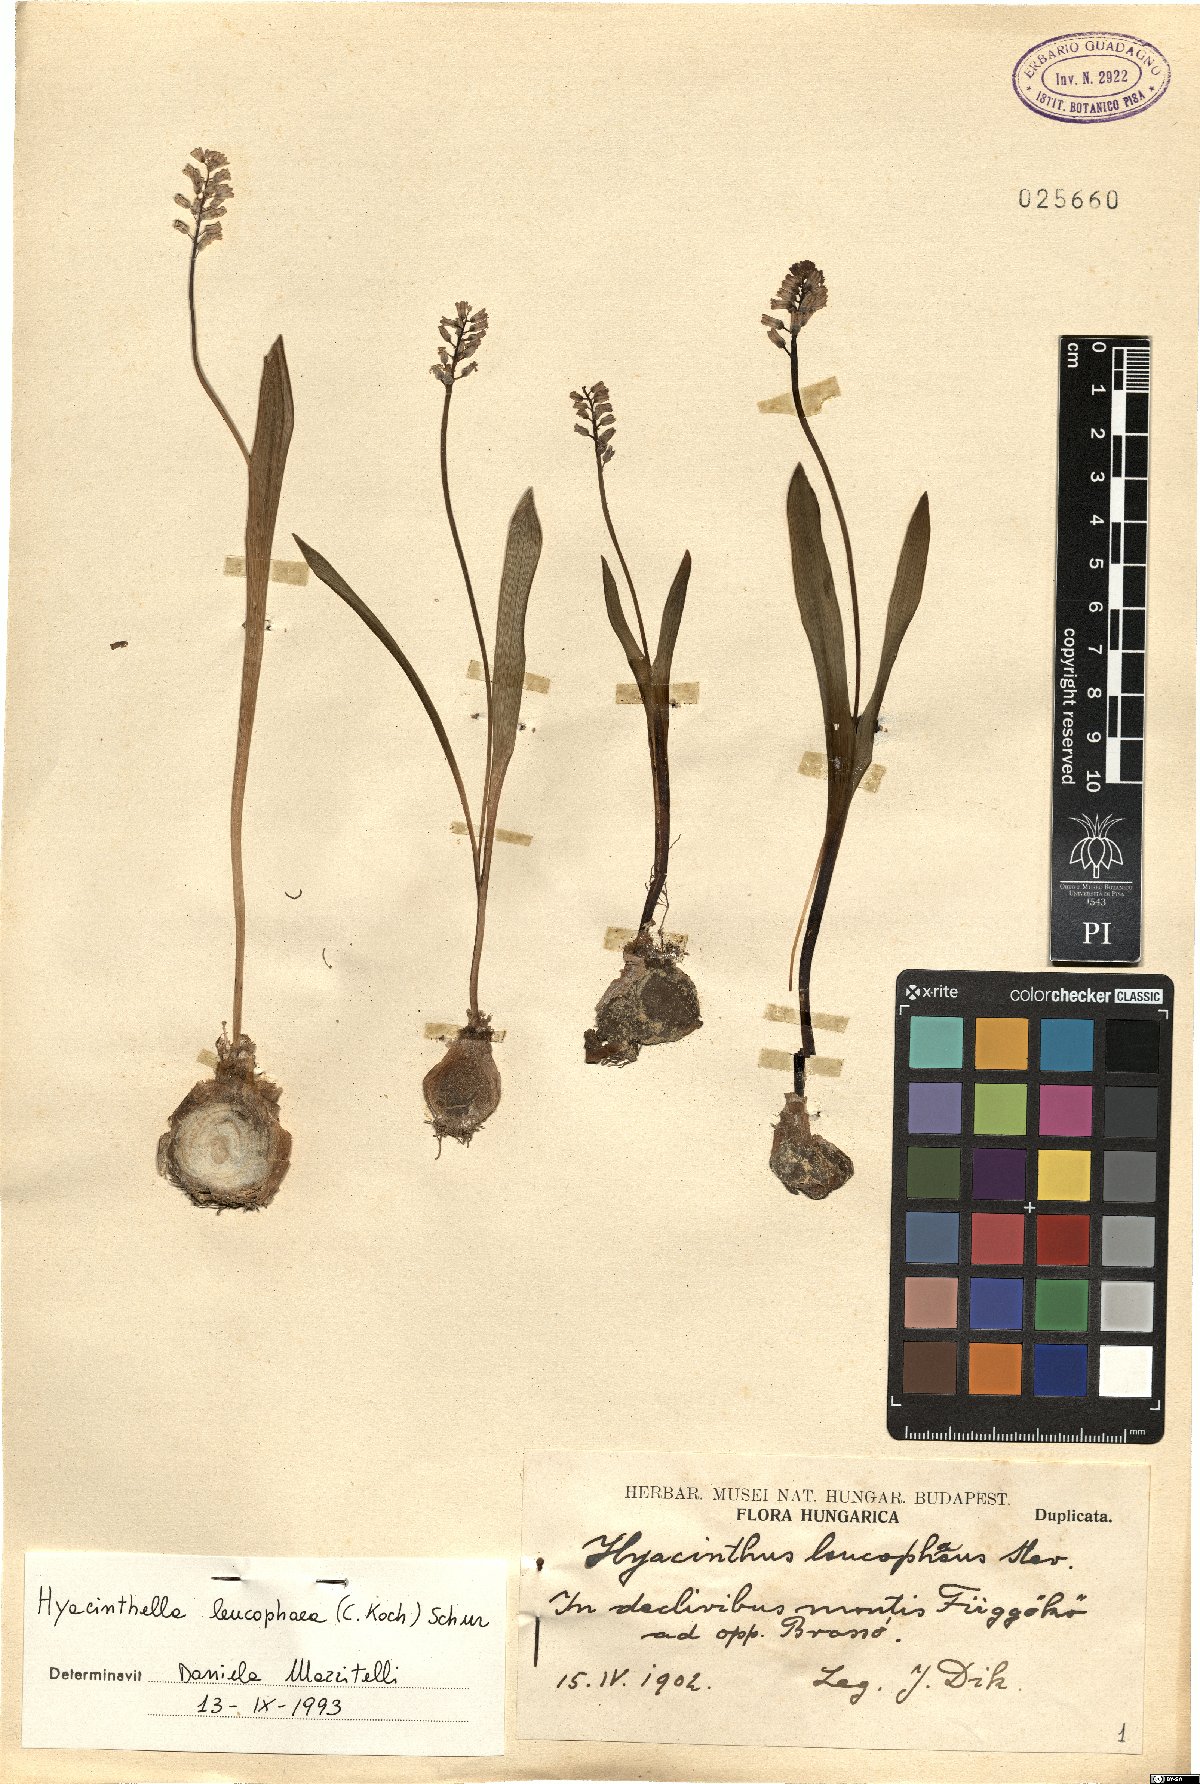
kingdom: Plantae
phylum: Tracheophyta
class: Liliopsida
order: Asparagales
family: Asparagaceae
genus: Hyacinthella
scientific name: Hyacinthella leucophaea
